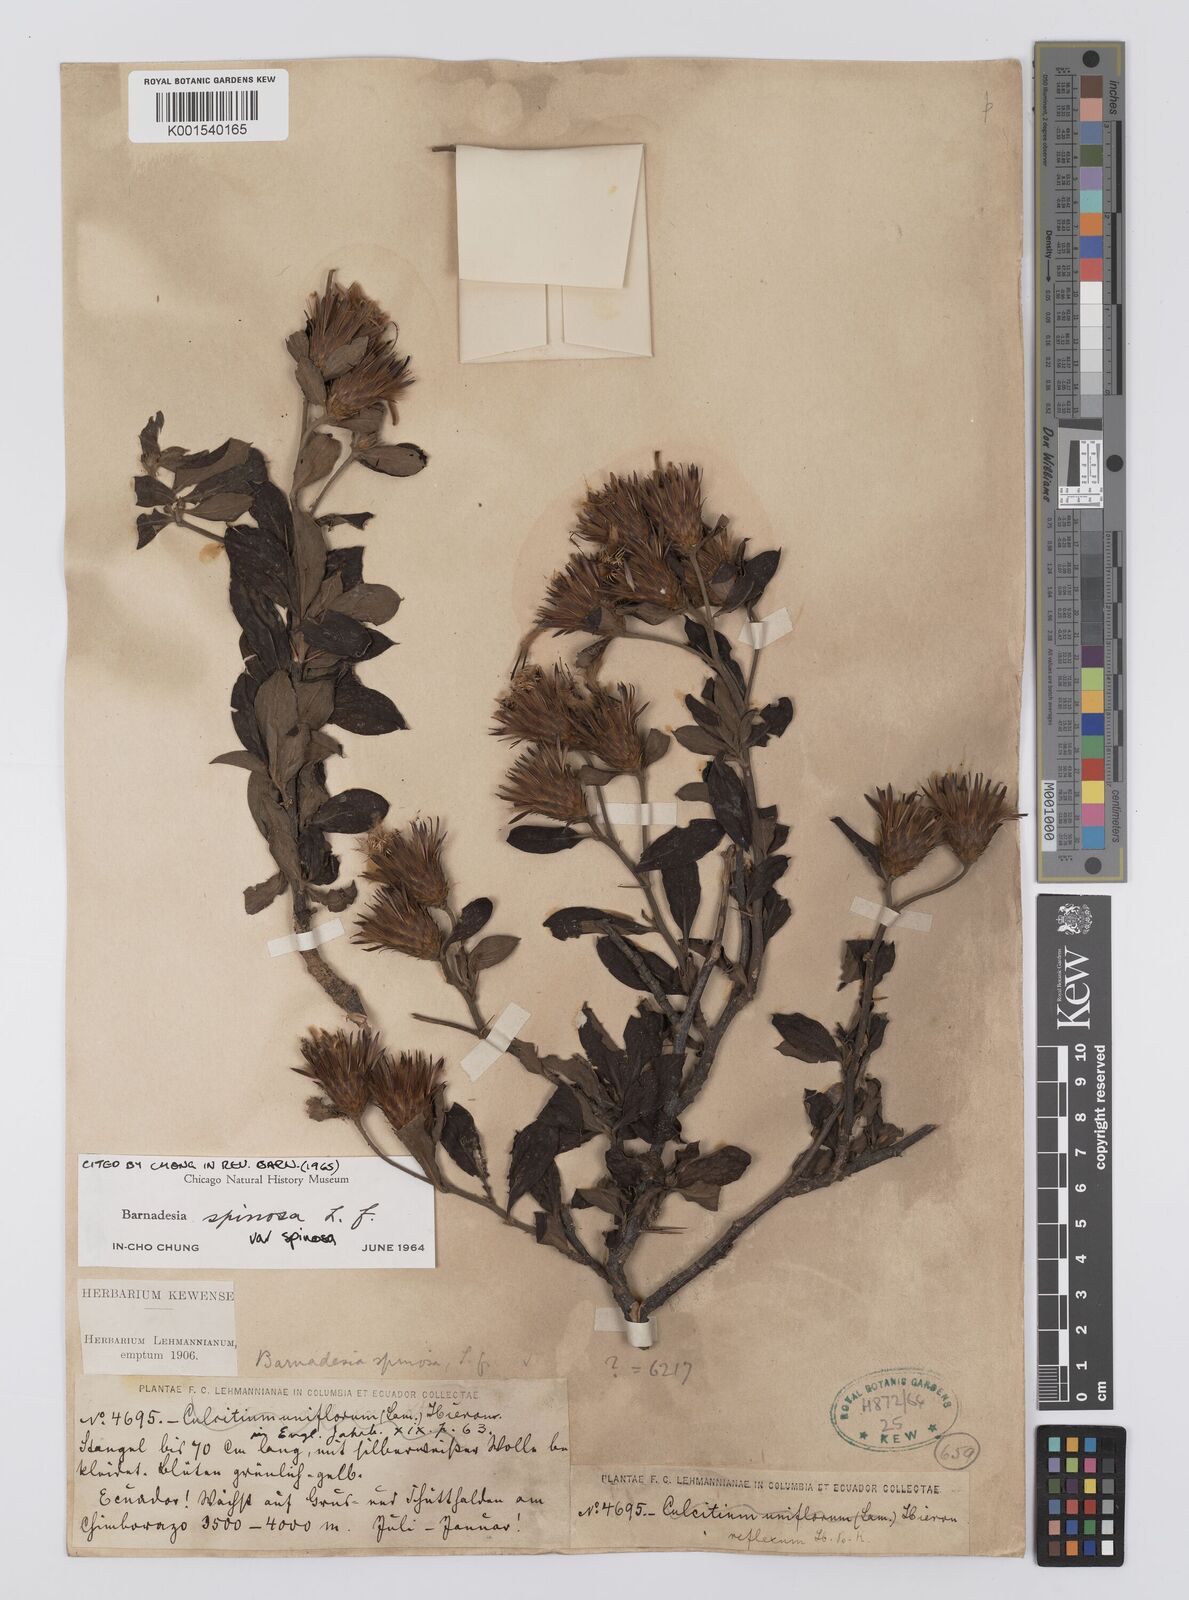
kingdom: Plantae
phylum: Tracheophyta
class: Magnoliopsida
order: Asterales
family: Asteraceae
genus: Barnadesia
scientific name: Barnadesia spinosa
